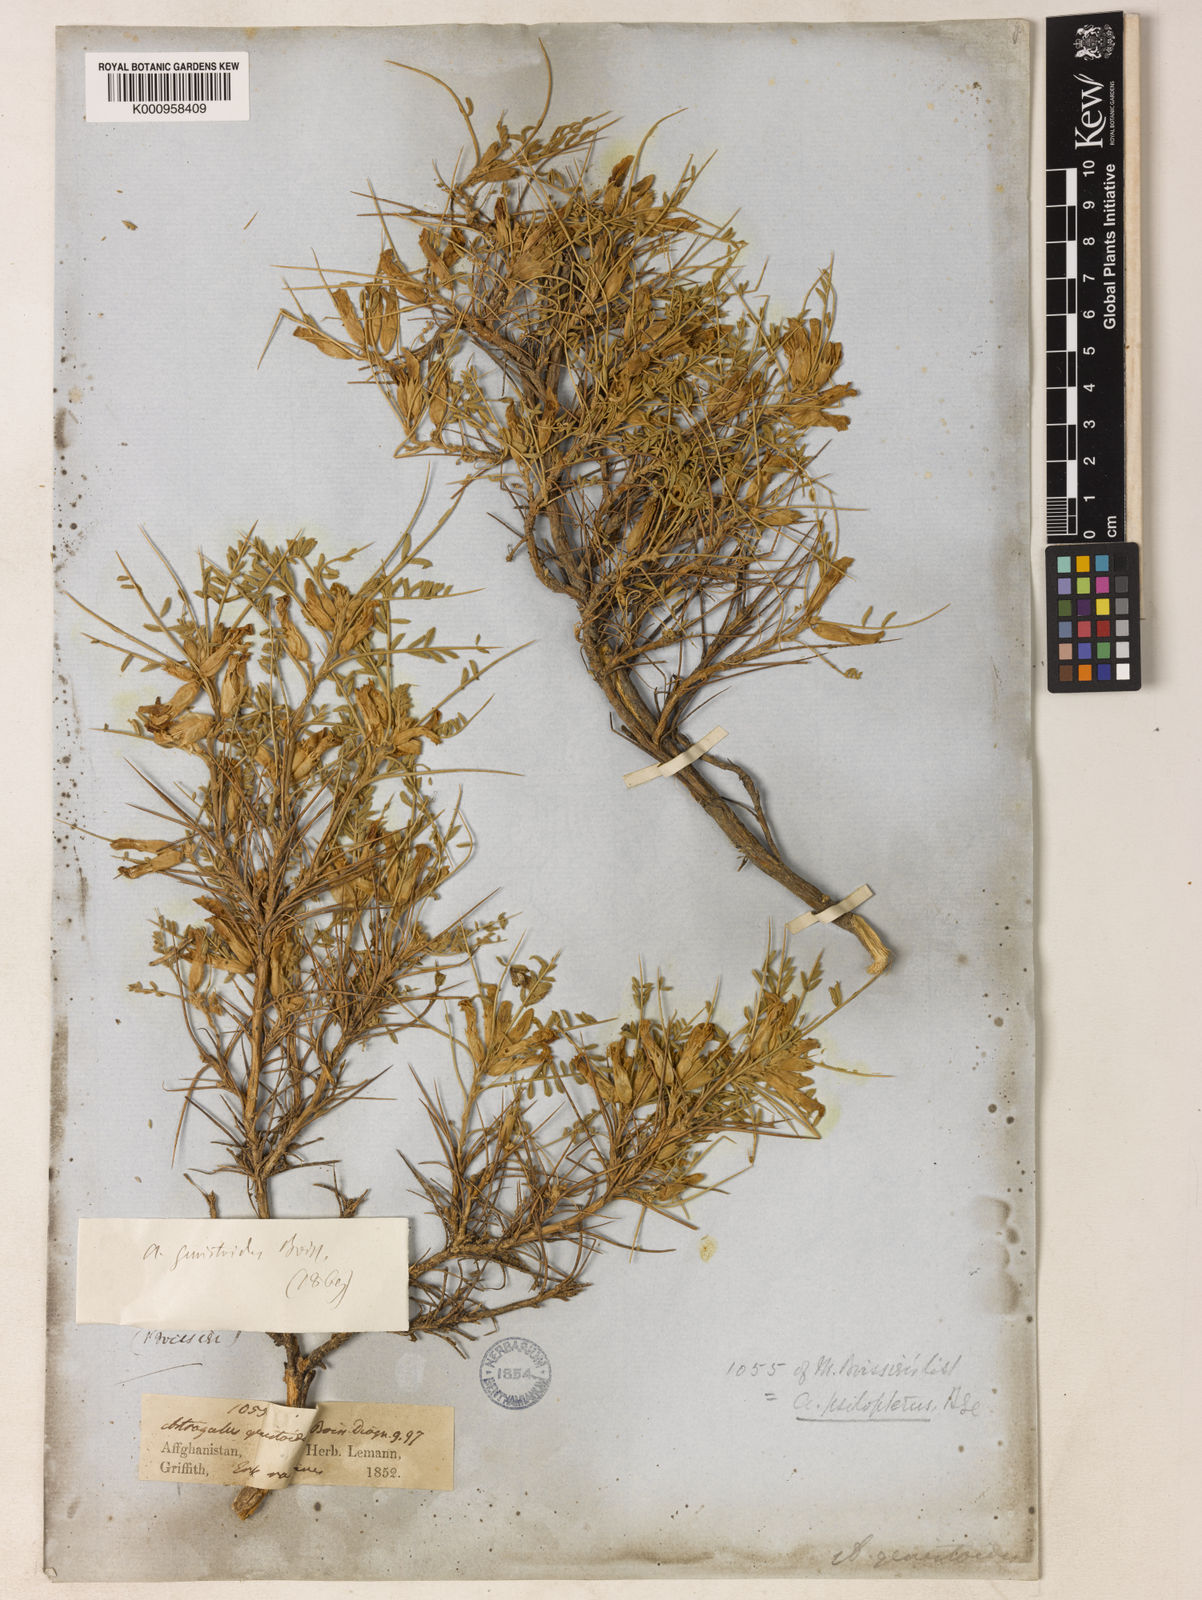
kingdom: Plantae
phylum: Tracheophyta
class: Magnoliopsida
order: Fabales
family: Fabaceae
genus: Astragalus
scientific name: Astragalus lasiosemius
